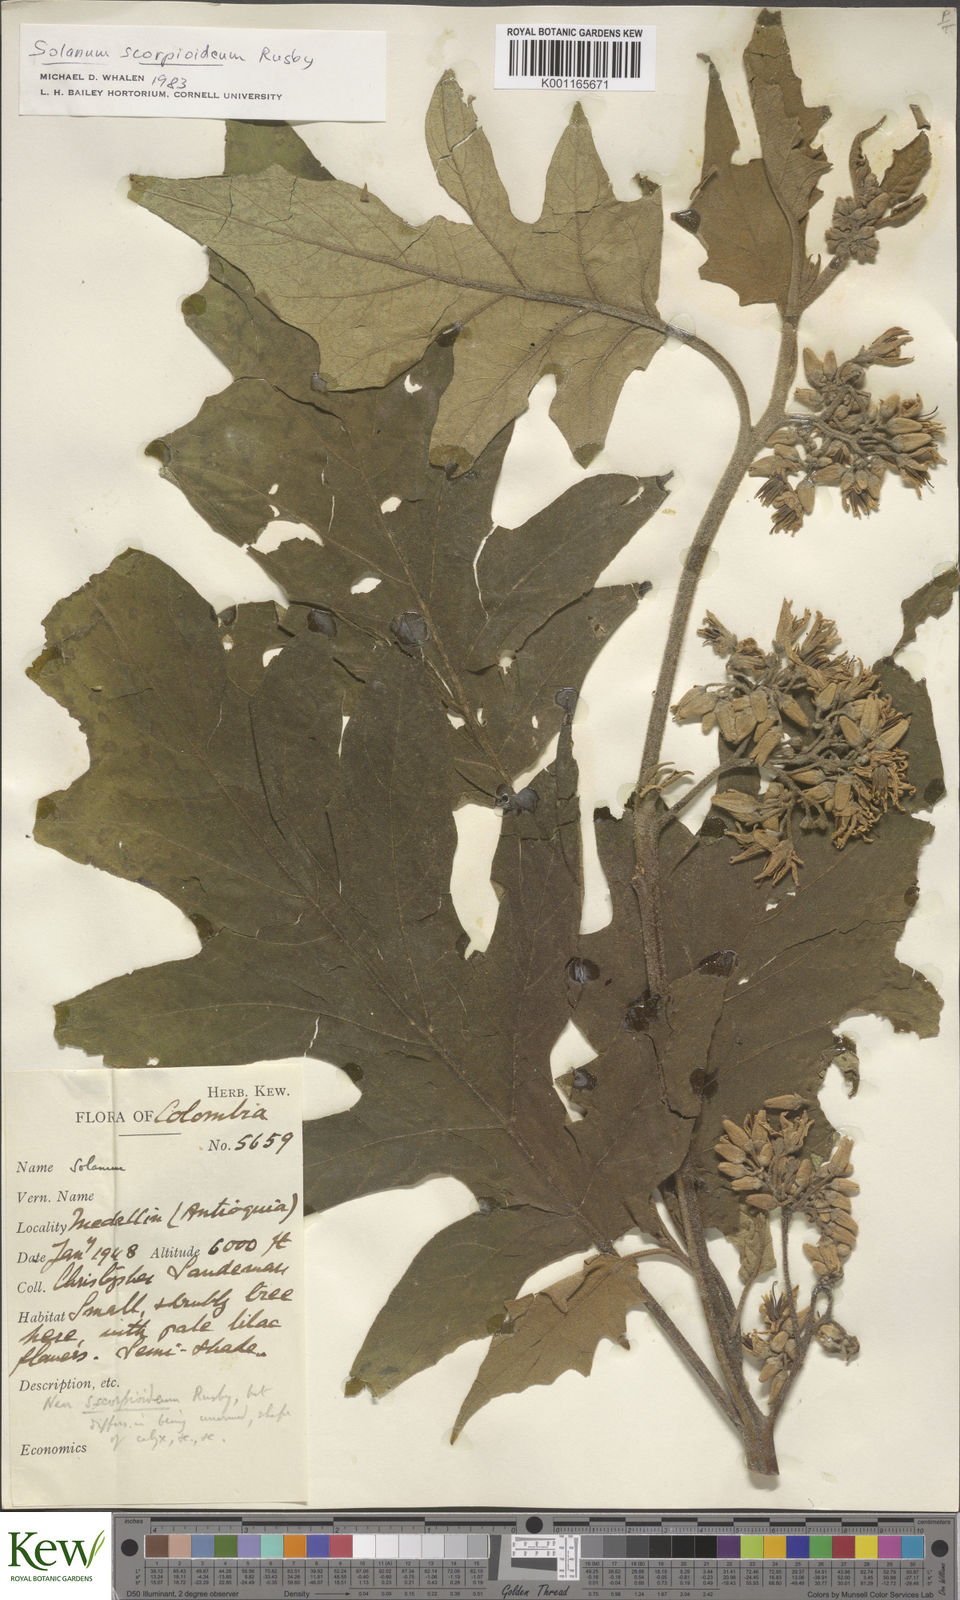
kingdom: Plantae
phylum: Tracheophyta
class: Magnoliopsida
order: Solanales
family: Solanaceae
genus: Solanum
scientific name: Solanum chrysotrichum
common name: Nightshade
